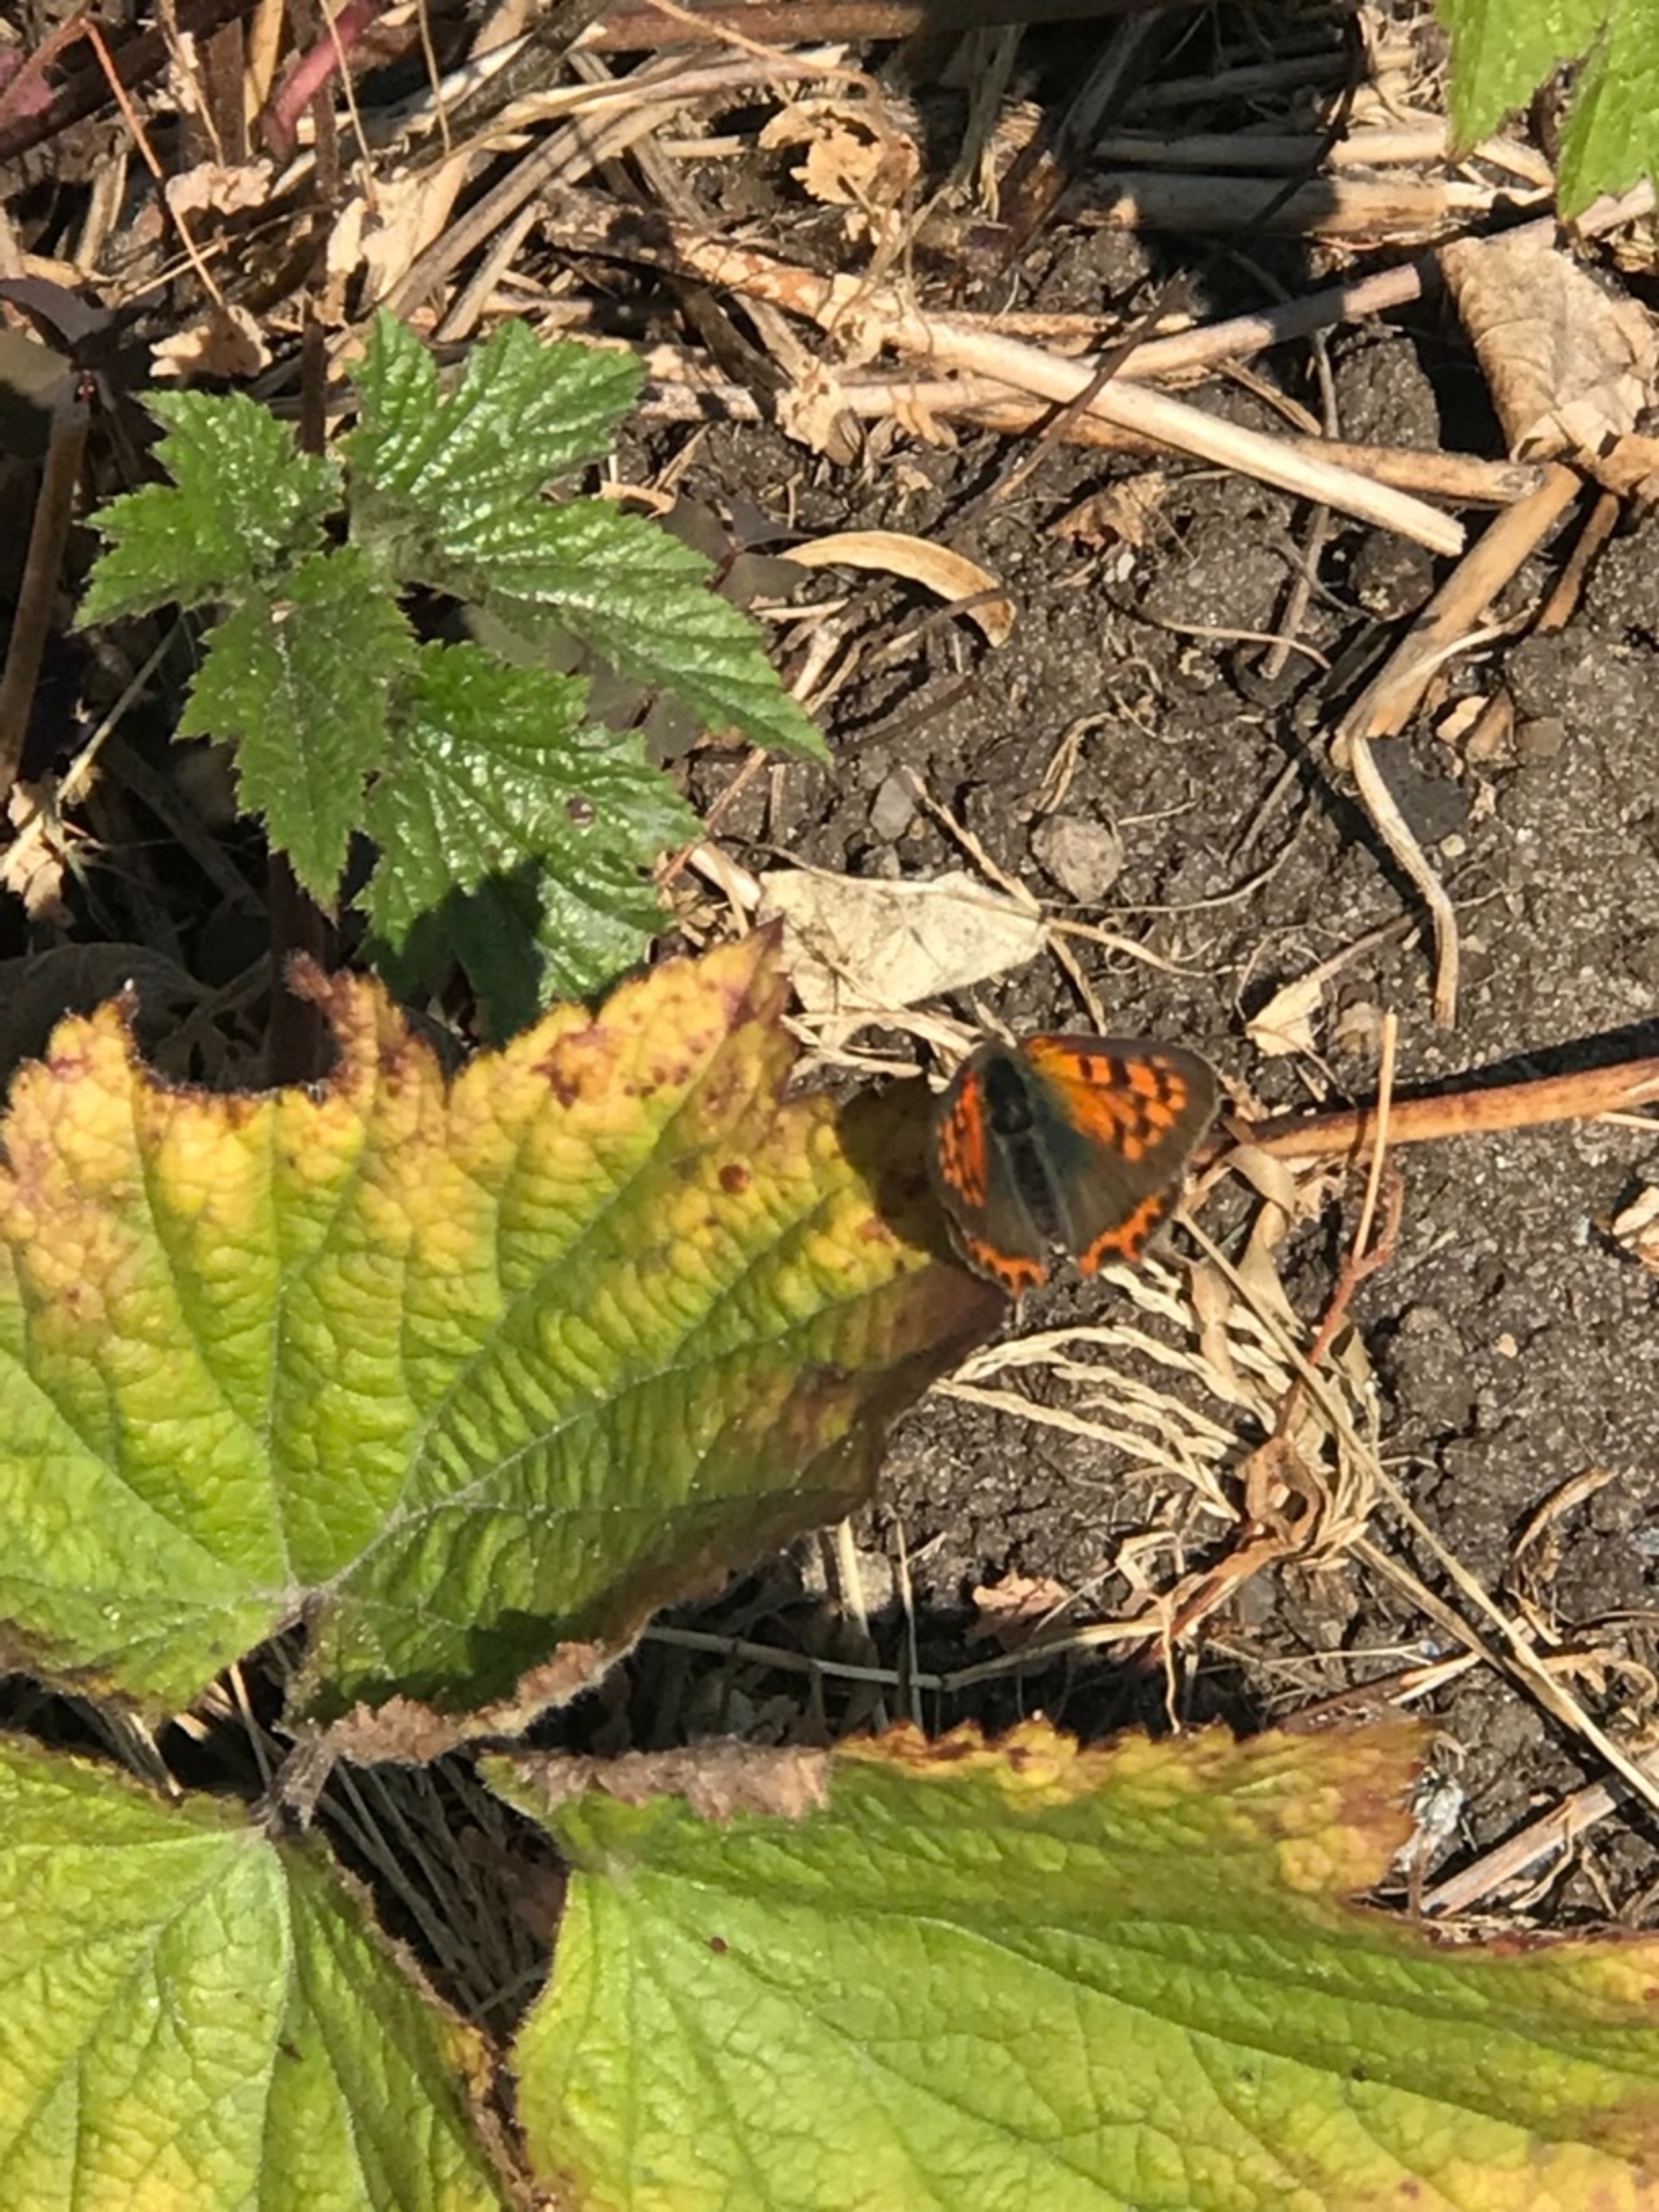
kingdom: Animalia
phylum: Arthropoda
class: Insecta
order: Lepidoptera
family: Lycaenidae
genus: Lycaena
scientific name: Lycaena phlaeas
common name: Lille ildfugl
